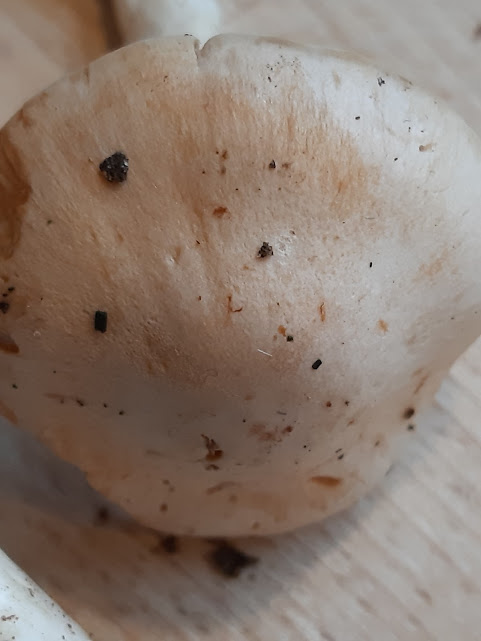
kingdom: Fungi
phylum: Basidiomycota
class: Agaricomycetes
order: Agaricales
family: Cortinariaceae
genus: Thaxterogaster
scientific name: Thaxterogaster leucoluteolus
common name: isabella slørhat
